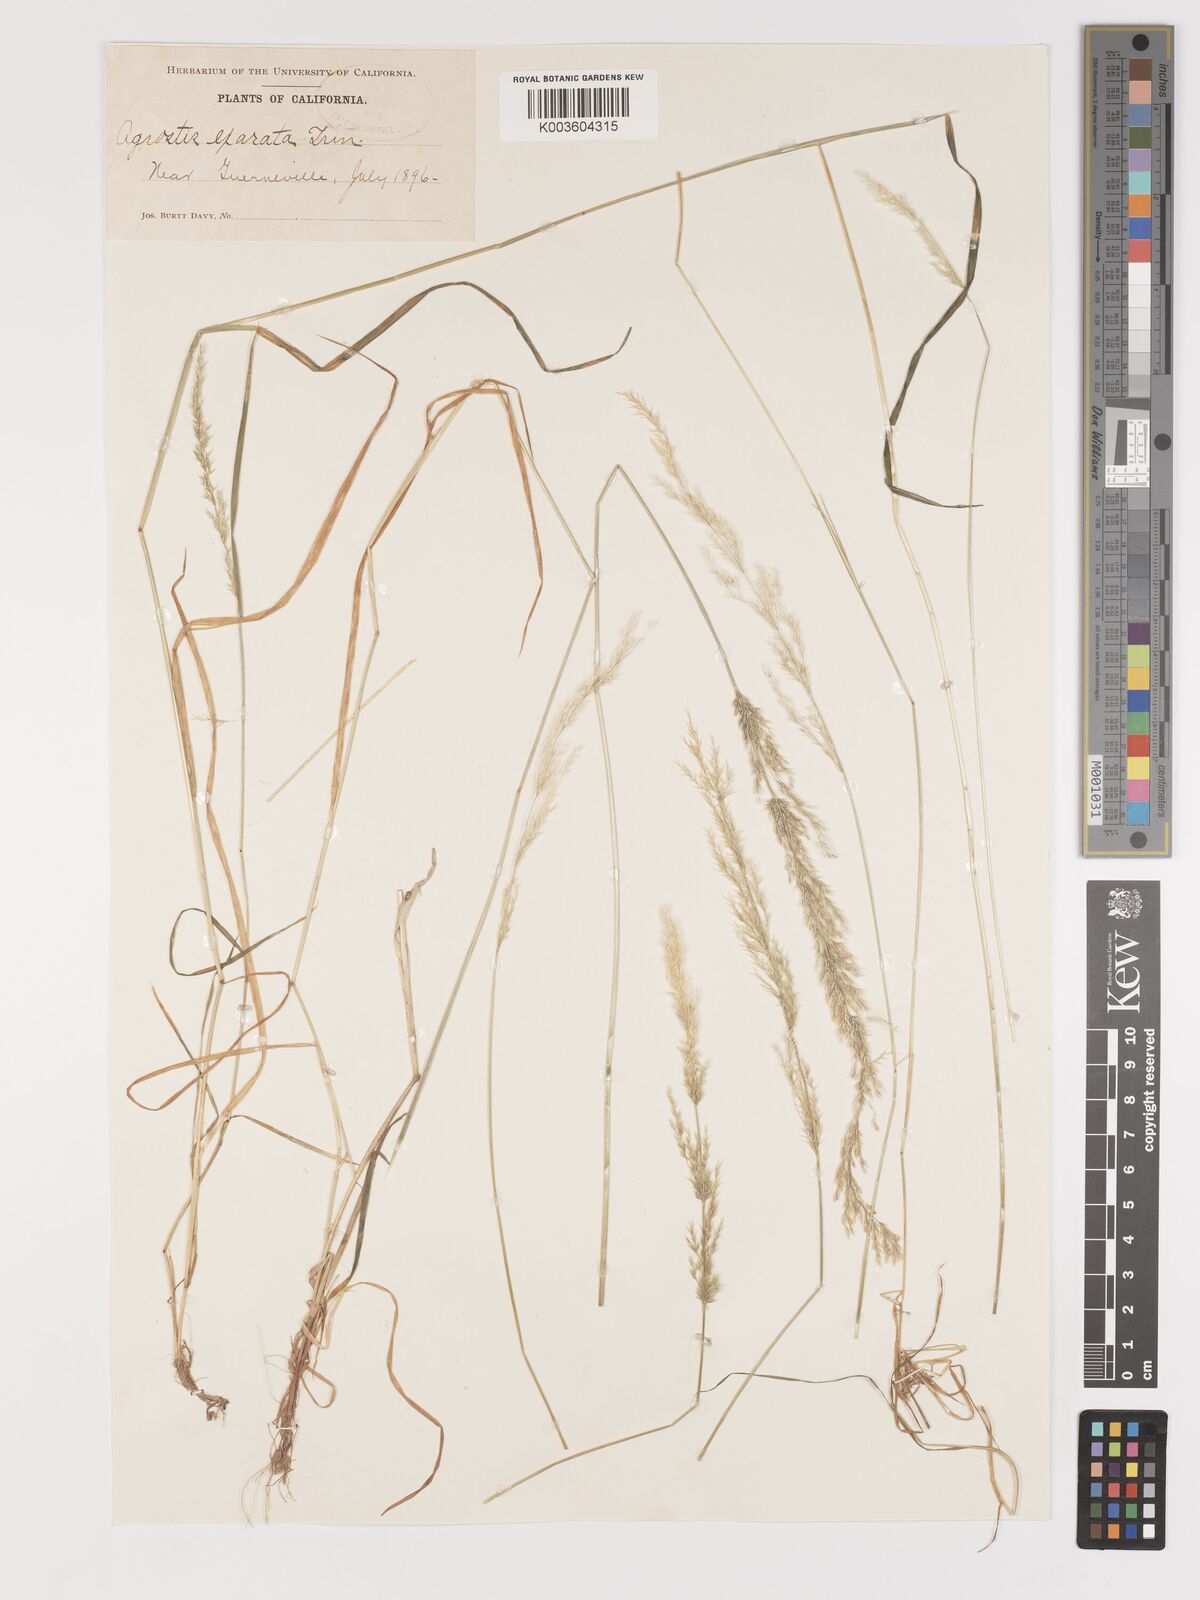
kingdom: Plantae
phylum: Tracheophyta
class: Liliopsida
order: Poales
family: Poaceae
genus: Agrostis
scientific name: Agrostis exarata
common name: Spike bent
